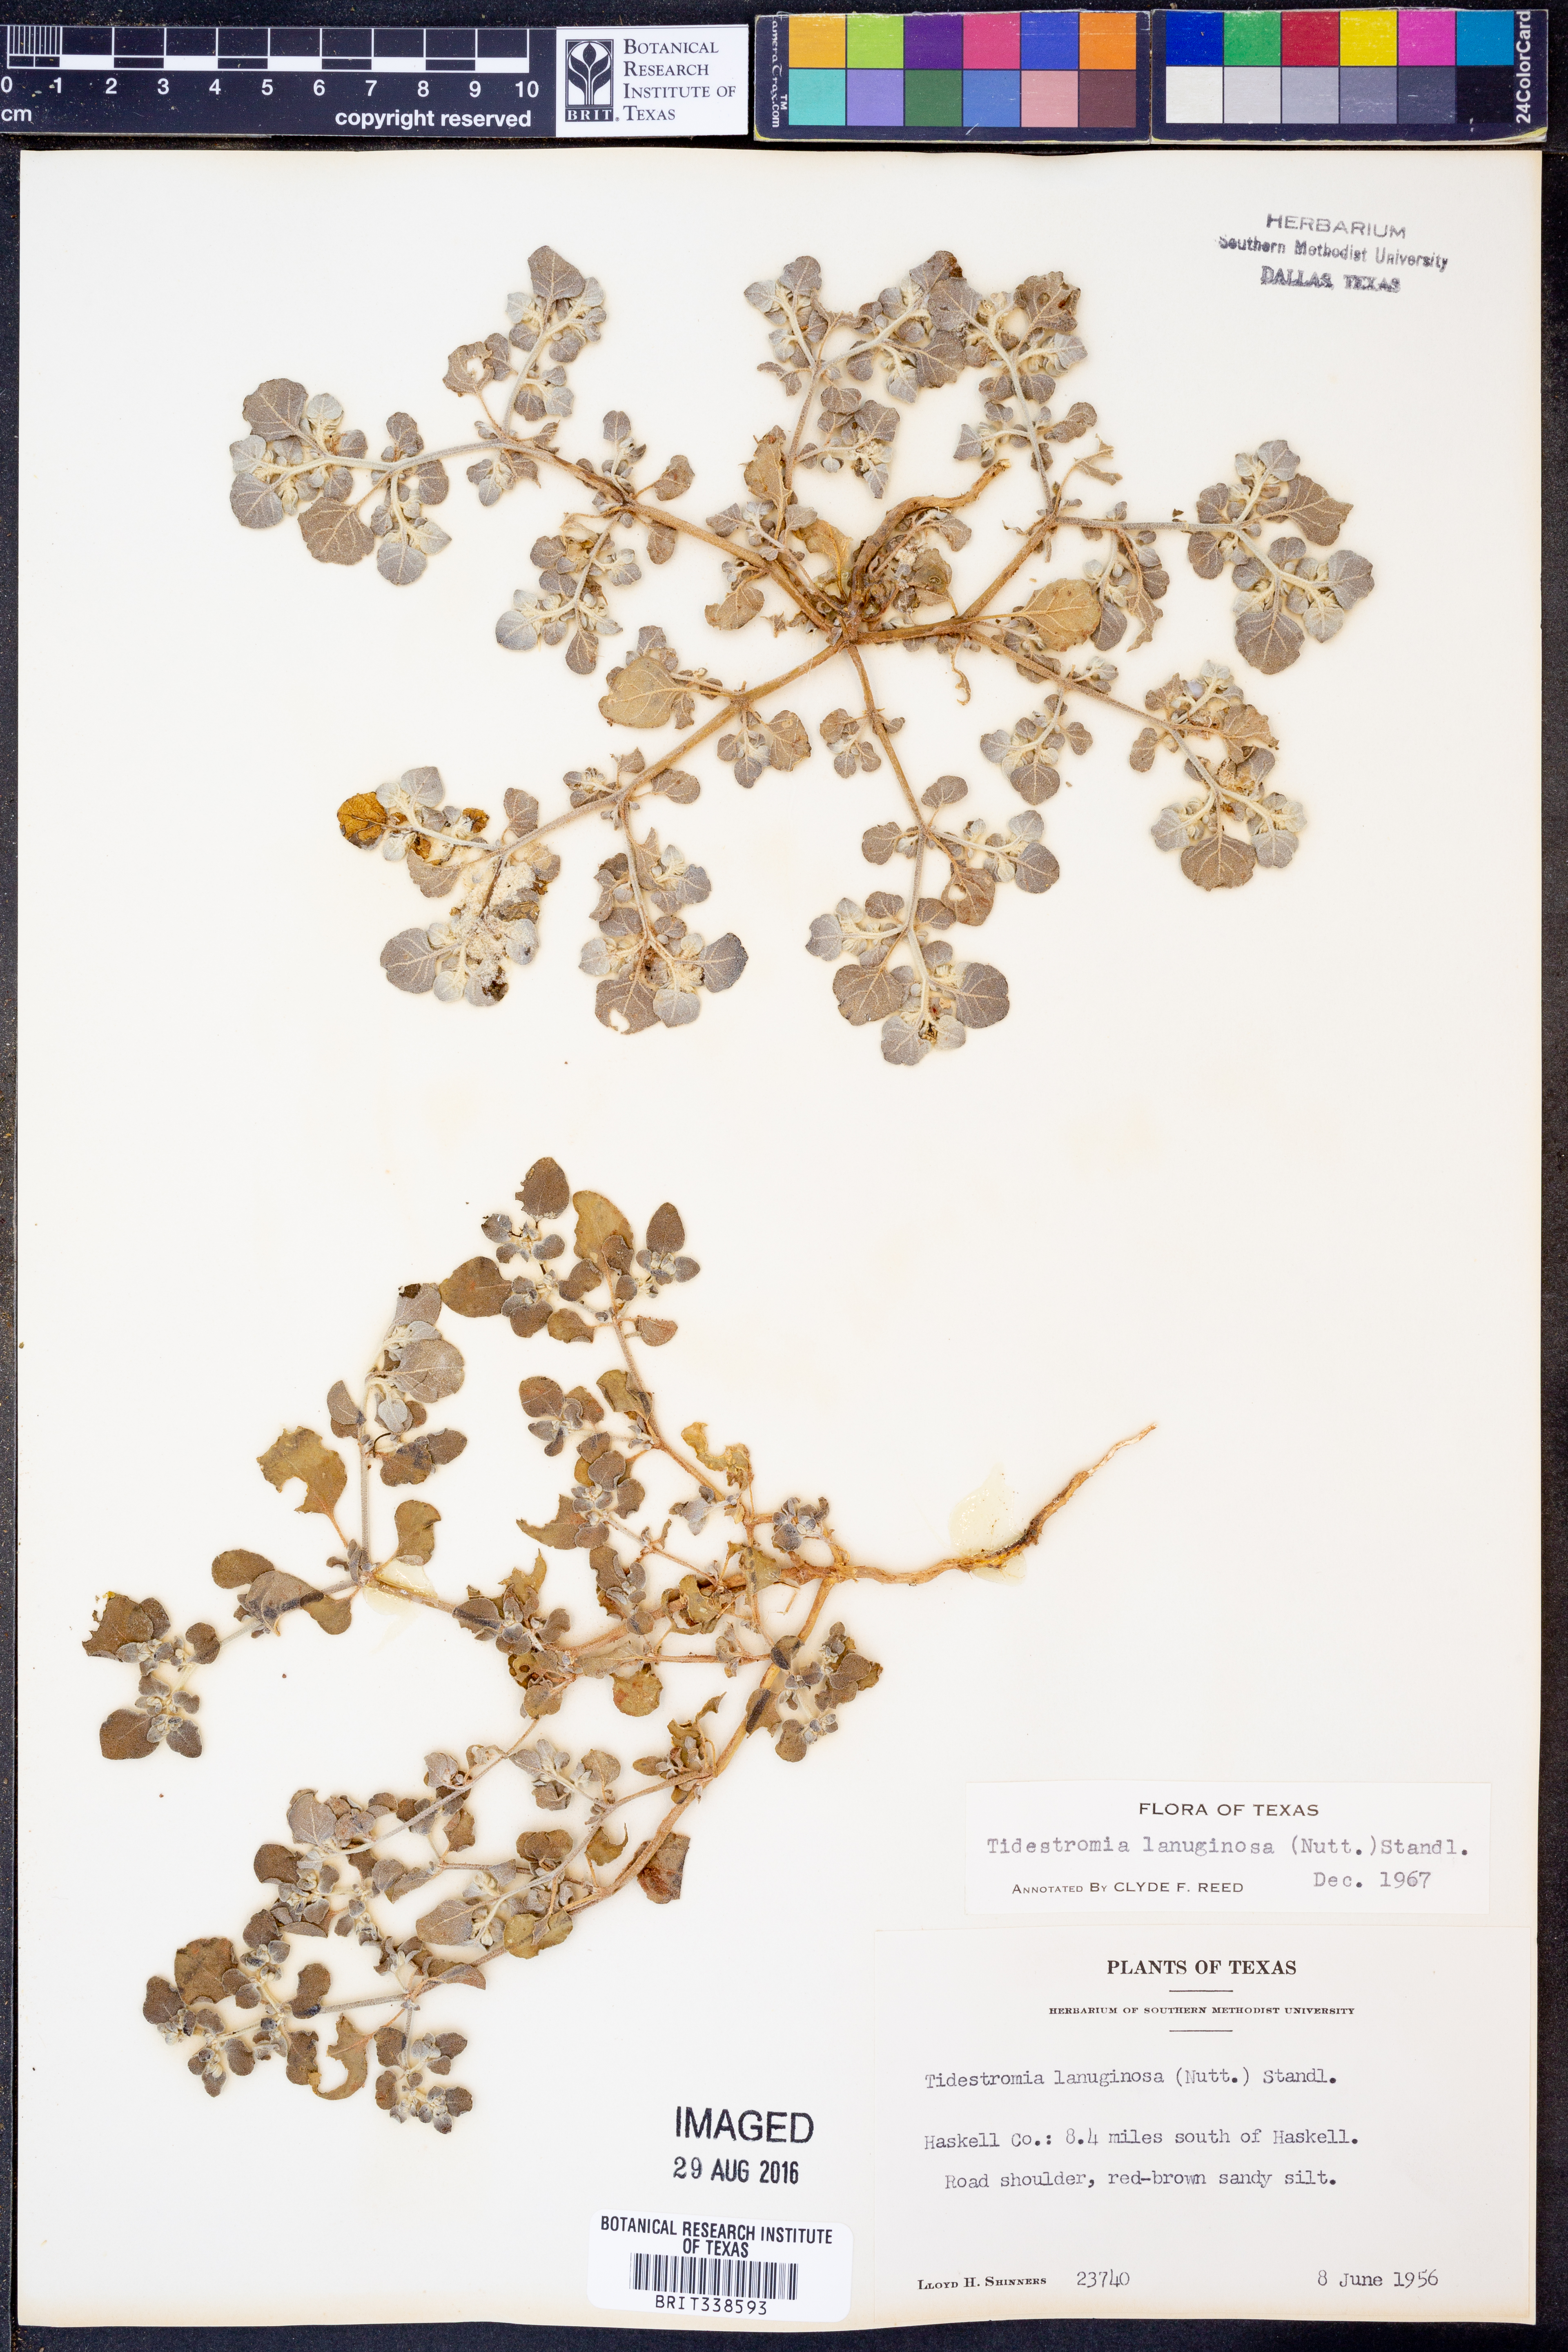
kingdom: Plantae
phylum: Tracheophyta
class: Magnoliopsida
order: Caryophyllales
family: Amaranthaceae
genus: Tidestromia
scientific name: Tidestromia lanuginosa
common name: Woolly tidestromia
